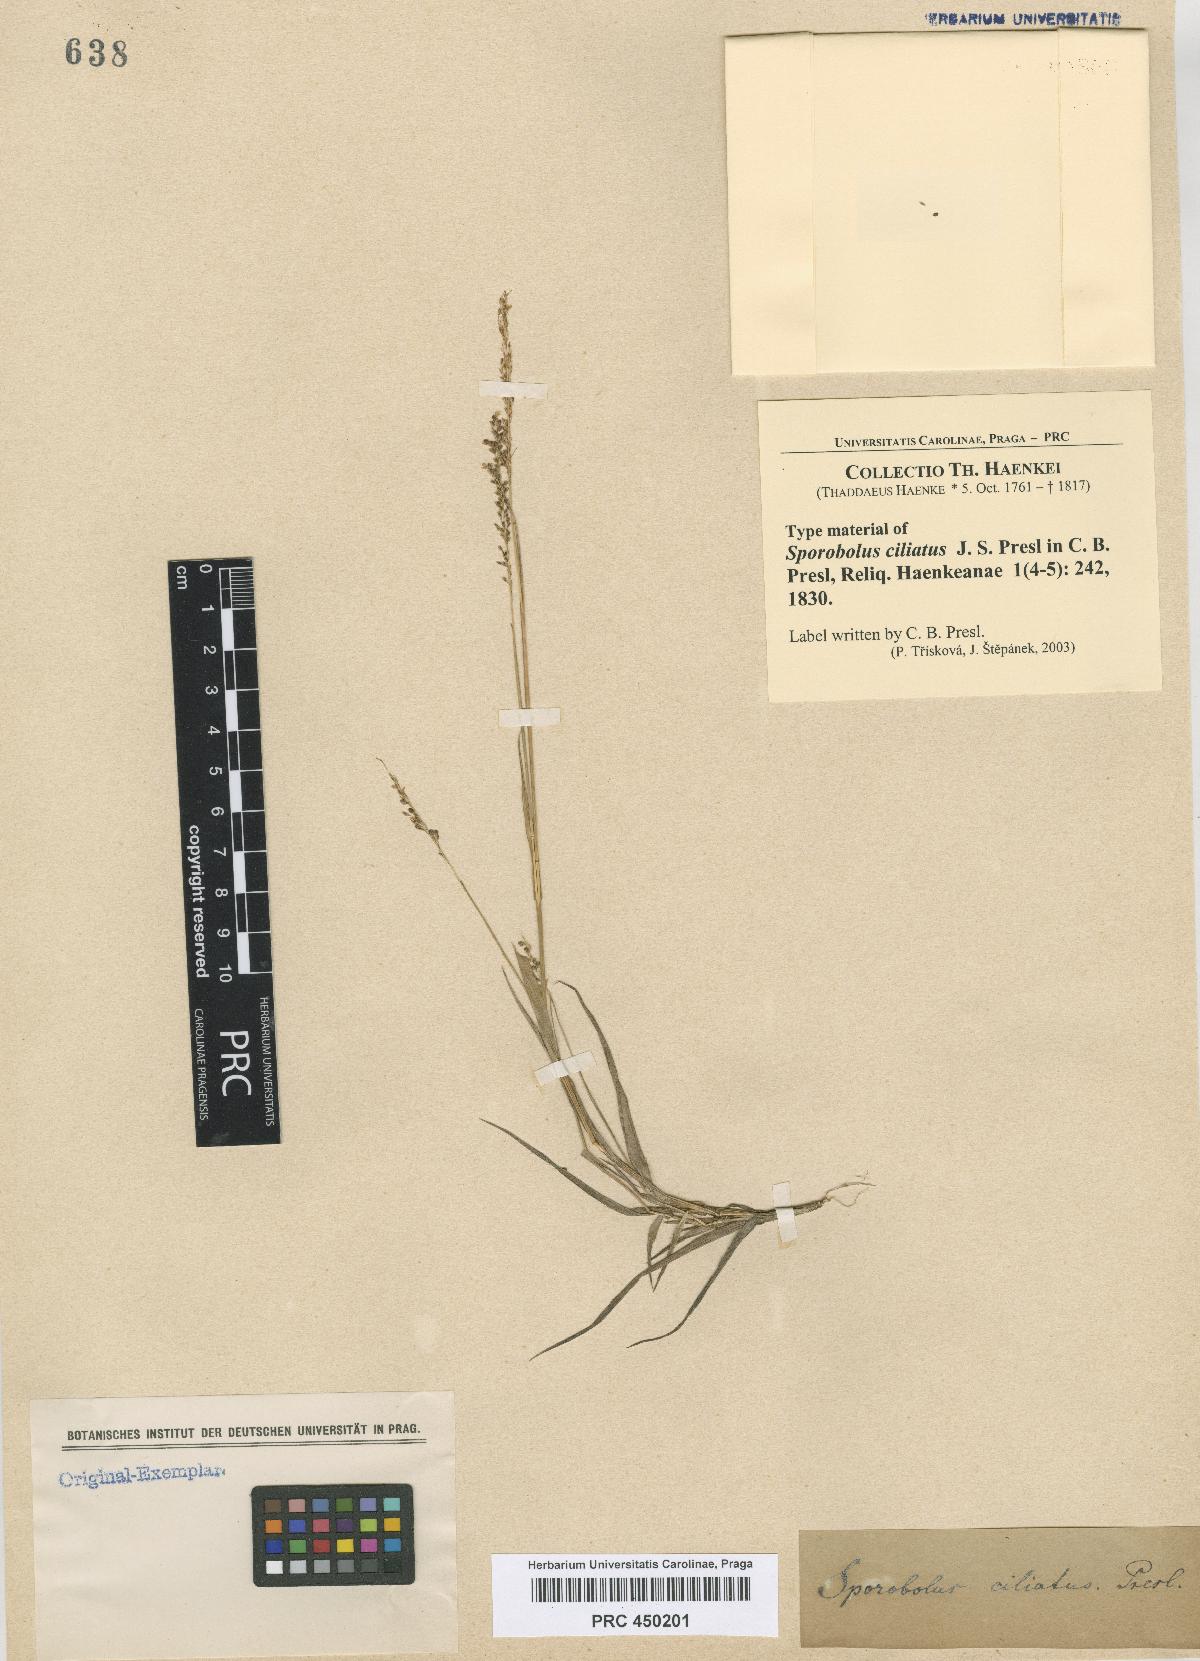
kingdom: Plantae
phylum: Tracheophyta
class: Liliopsida
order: Poales
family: Poaceae
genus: Sporobolus
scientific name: Sporobolus pilifer
